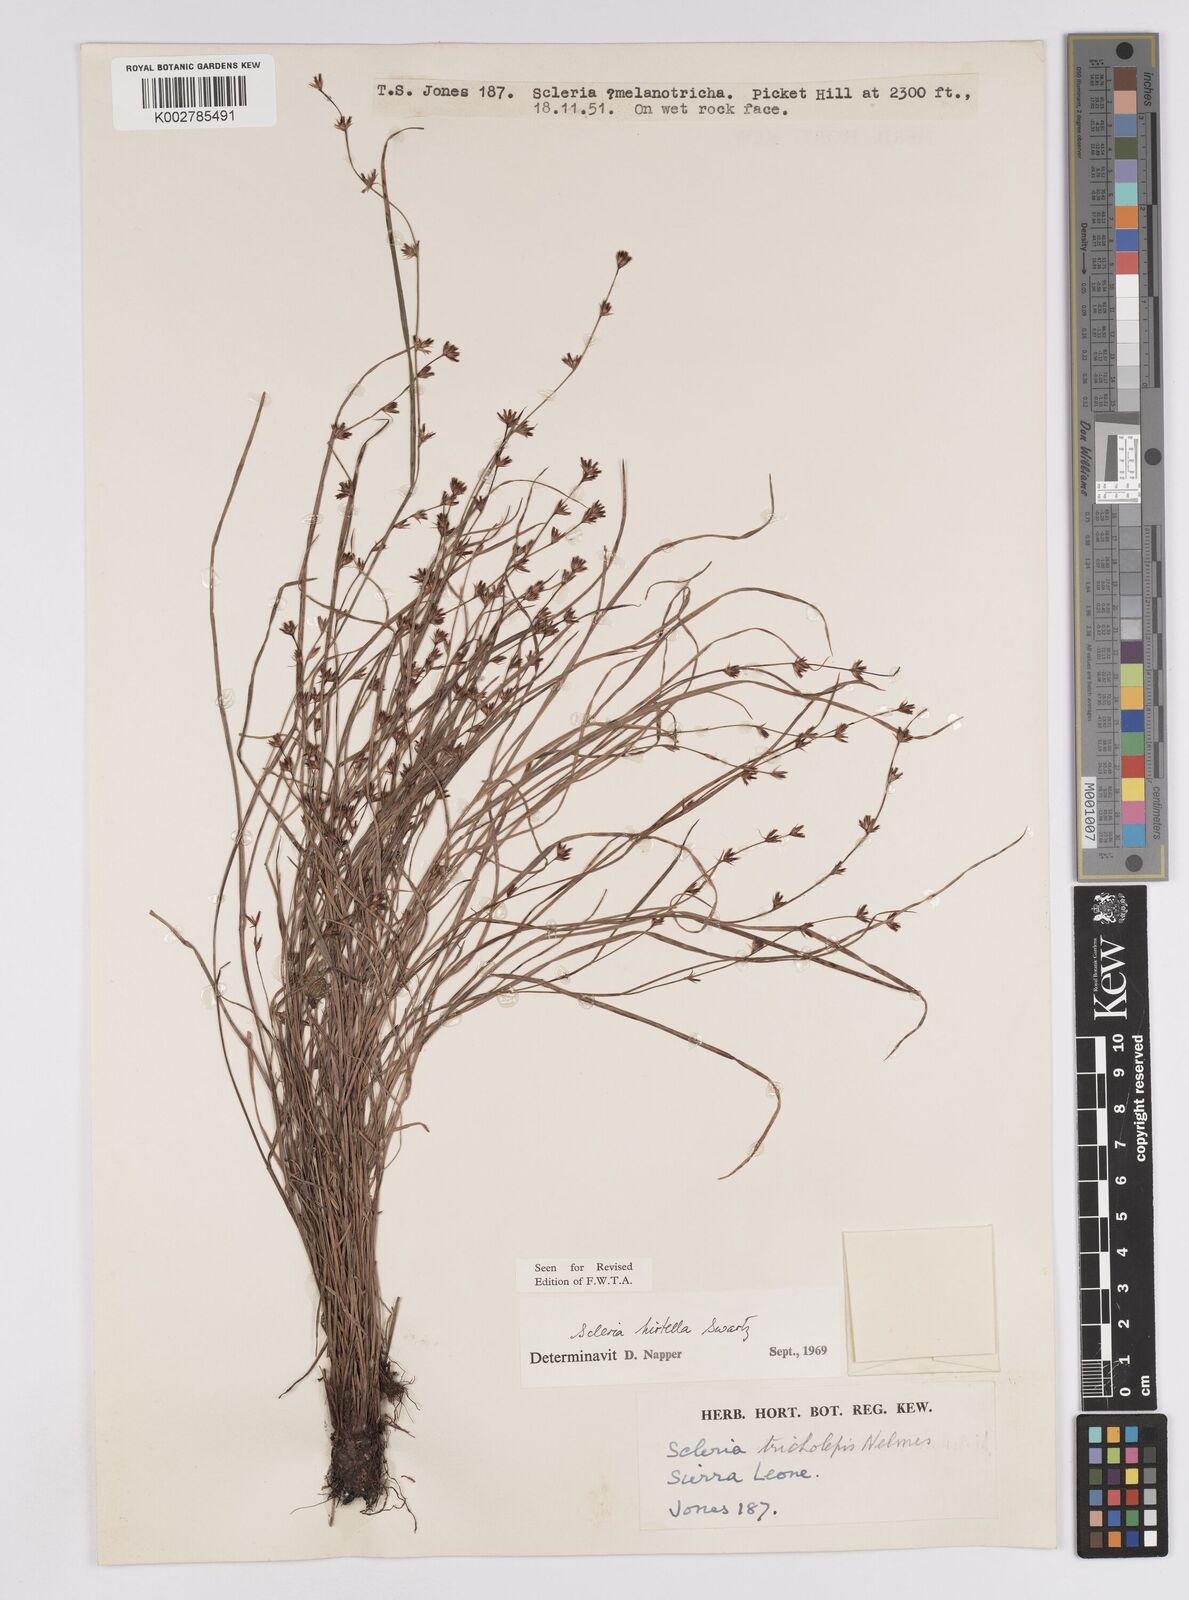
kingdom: Plantae
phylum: Tracheophyta
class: Liliopsida
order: Poales
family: Cyperaceae
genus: Scleria
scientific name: Scleria tricholepis
